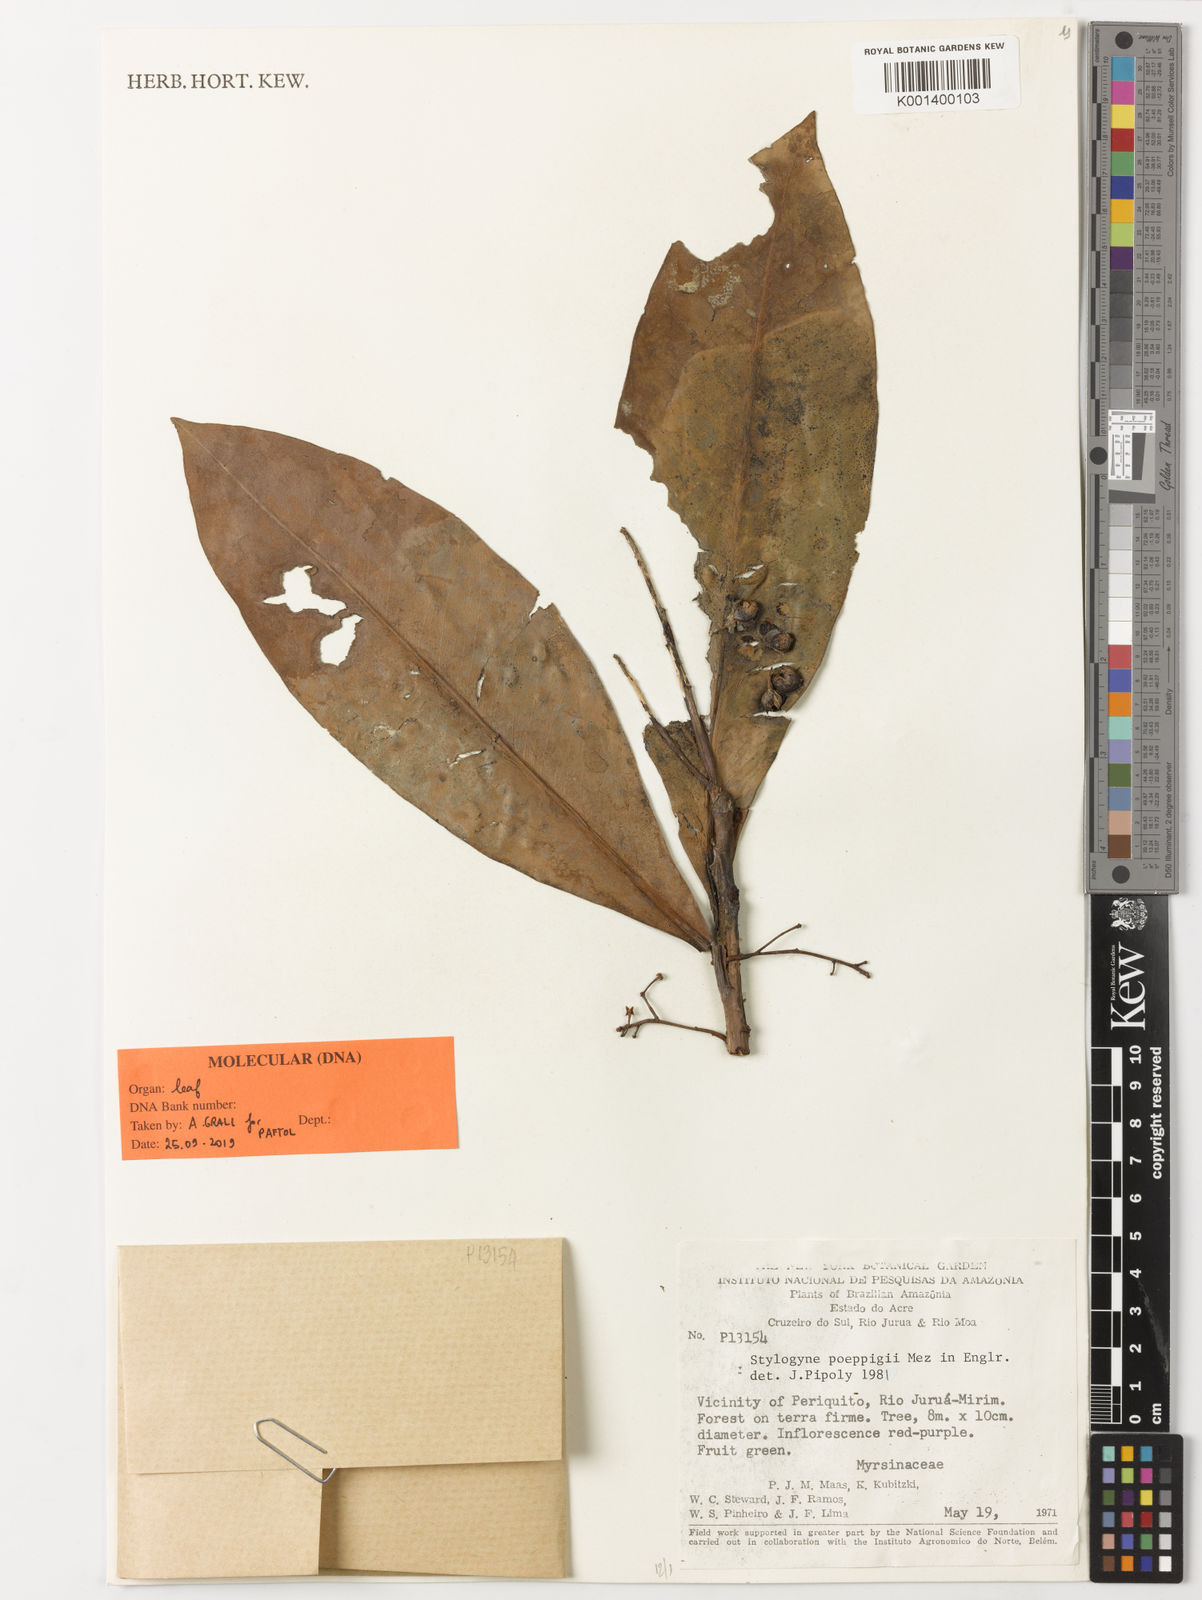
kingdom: Plantae
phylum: Tracheophyta
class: Magnoliopsida
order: Ericales
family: Primulaceae
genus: Stylogyne
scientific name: Stylogyne orinocensis
